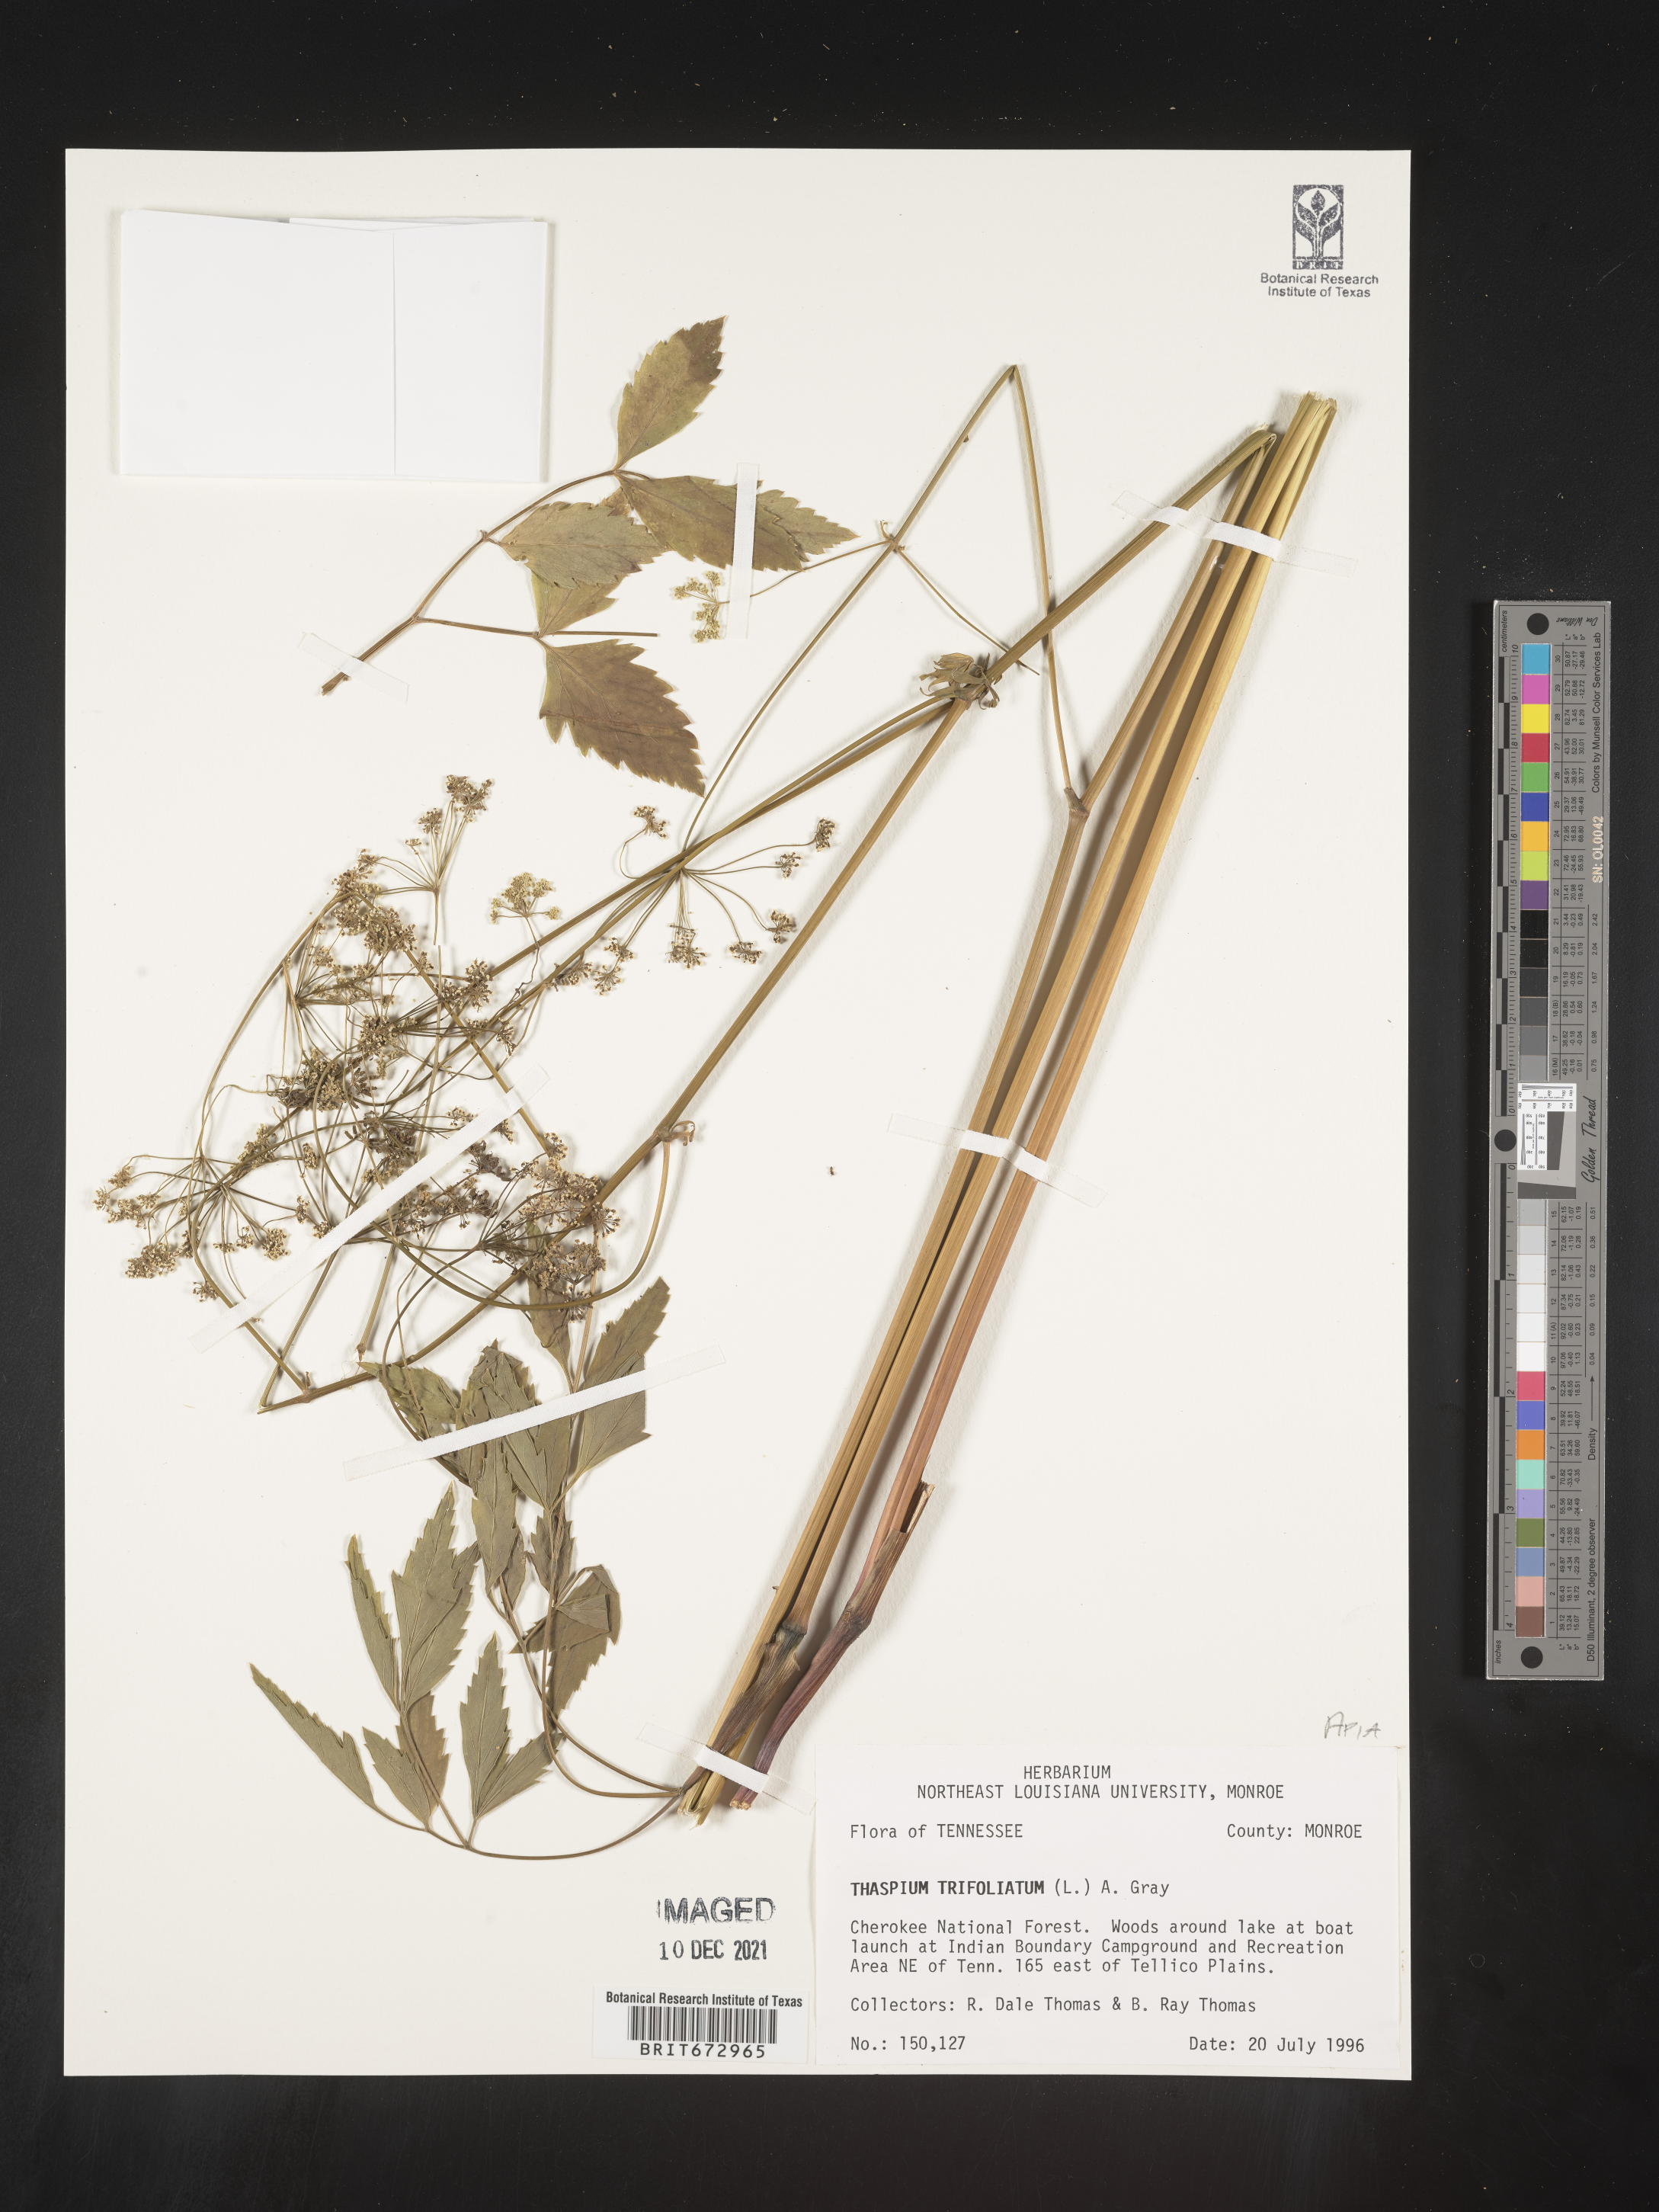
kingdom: Plantae
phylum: Tracheophyta
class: Magnoliopsida
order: Apiales
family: Apiaceae
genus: Thaspium
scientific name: Thaspium
